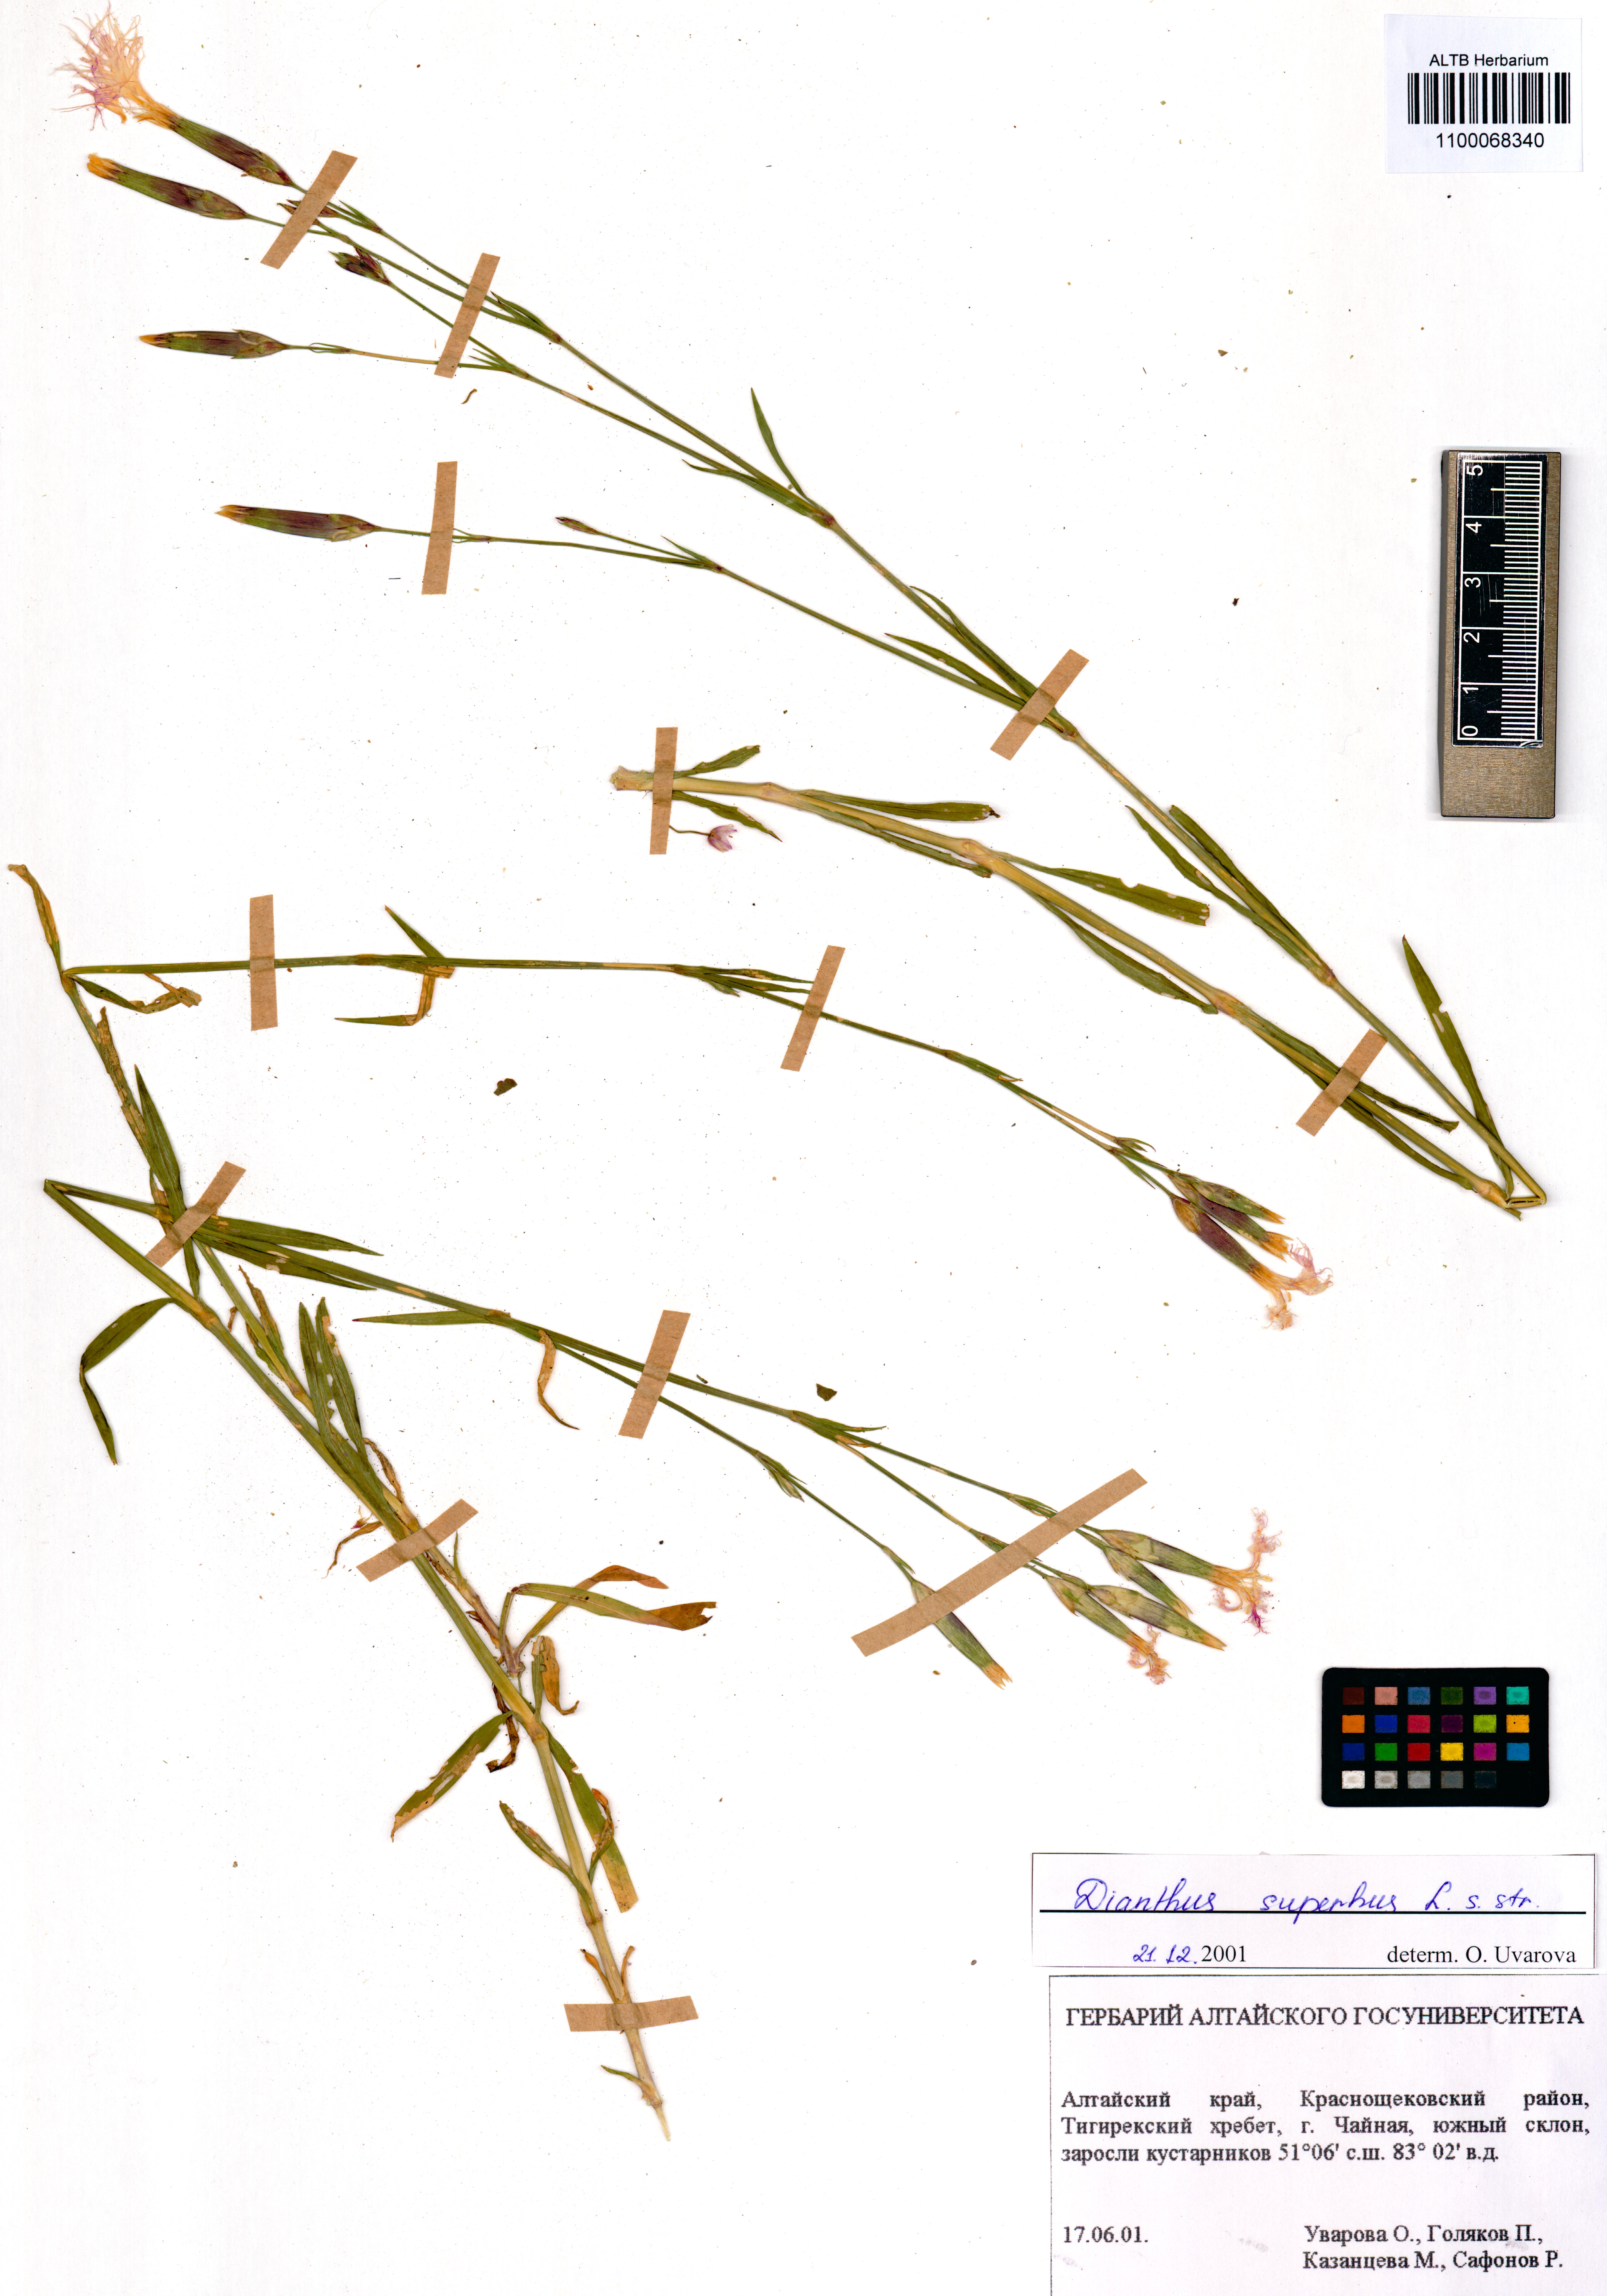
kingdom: Plantae
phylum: Tracheophyta
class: Magnoliopsida
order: Caryophyllales
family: Caryophyllaceae
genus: Dianthus
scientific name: Dianthus superbus
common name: Fringed pink
